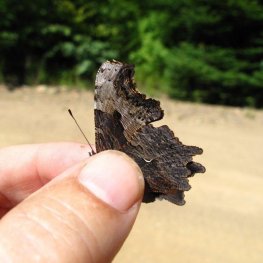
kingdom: Animalia
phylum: Arthropoda
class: Insecta
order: Lepidoptera
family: Nymphalidae
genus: Polygonia
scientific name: Polygonia progne
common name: Gray Comma
